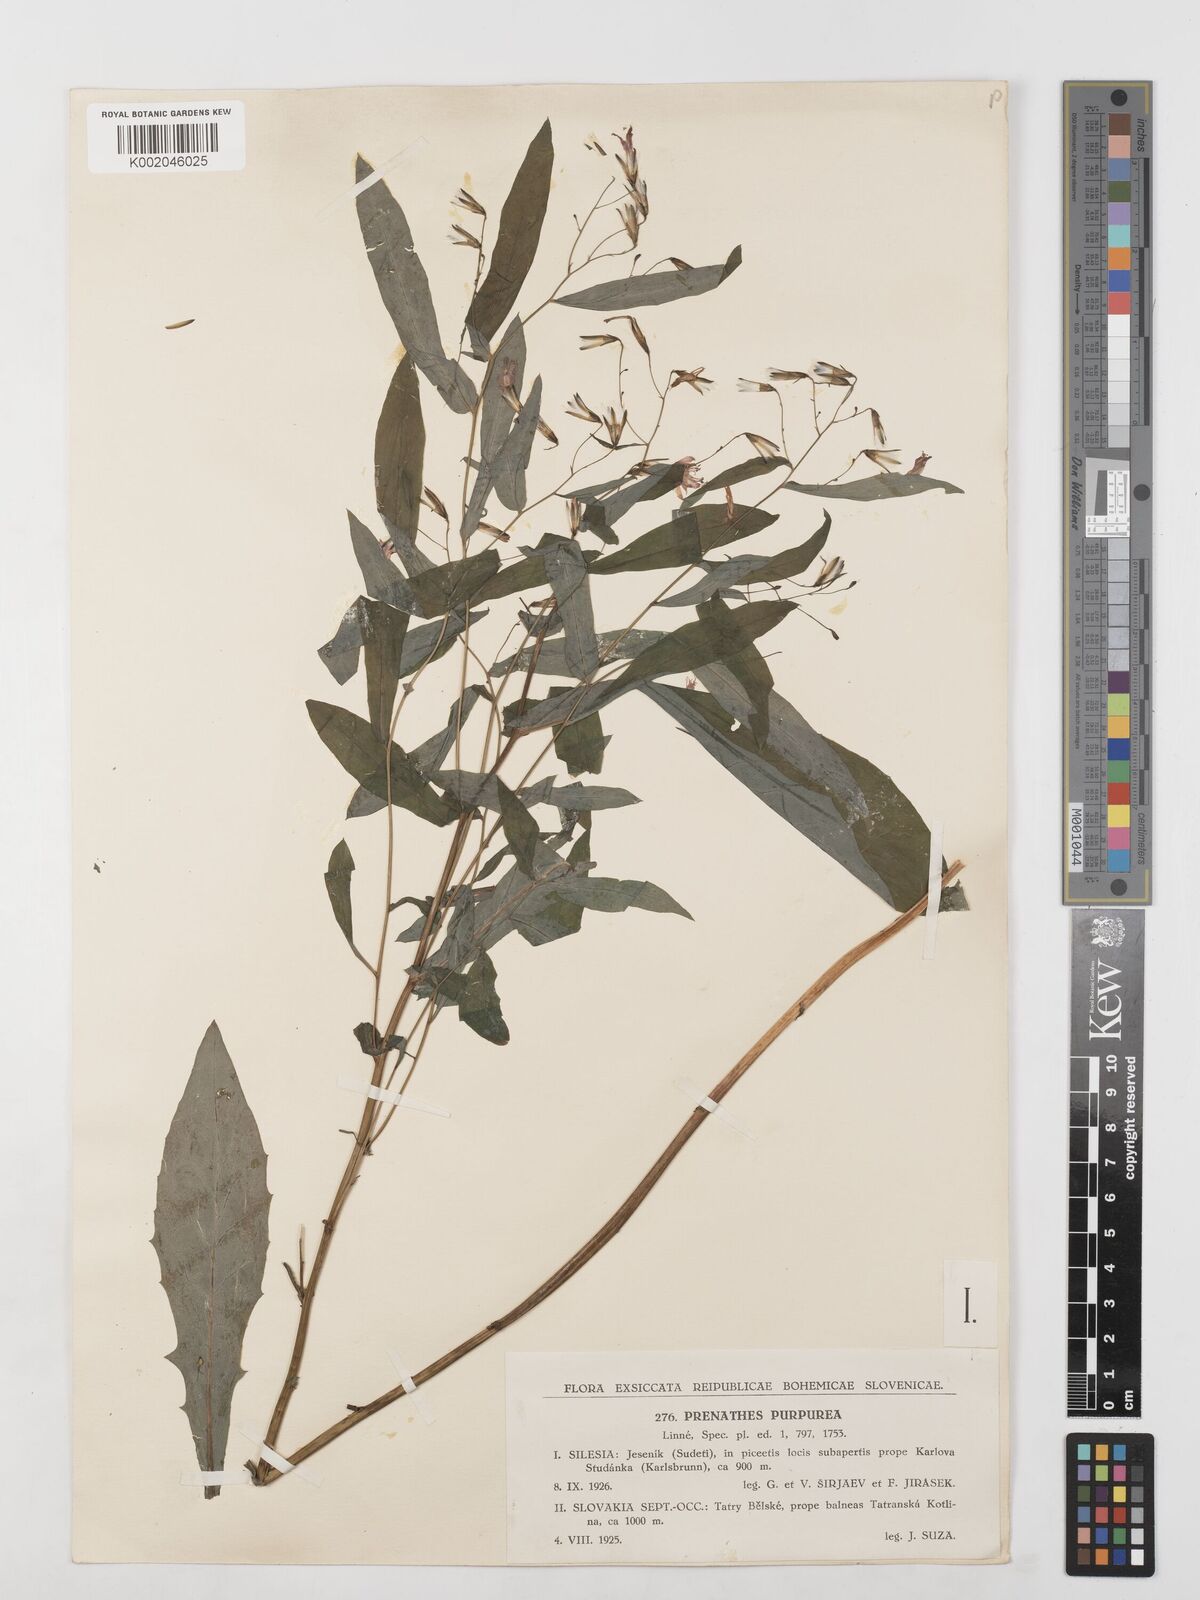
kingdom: Plantae
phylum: Tracheophyta
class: Magnoliopsida
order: Asterales
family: Asteraceae
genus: Prenanthes
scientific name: Prenanthes purpurea
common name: Purple lettuce
